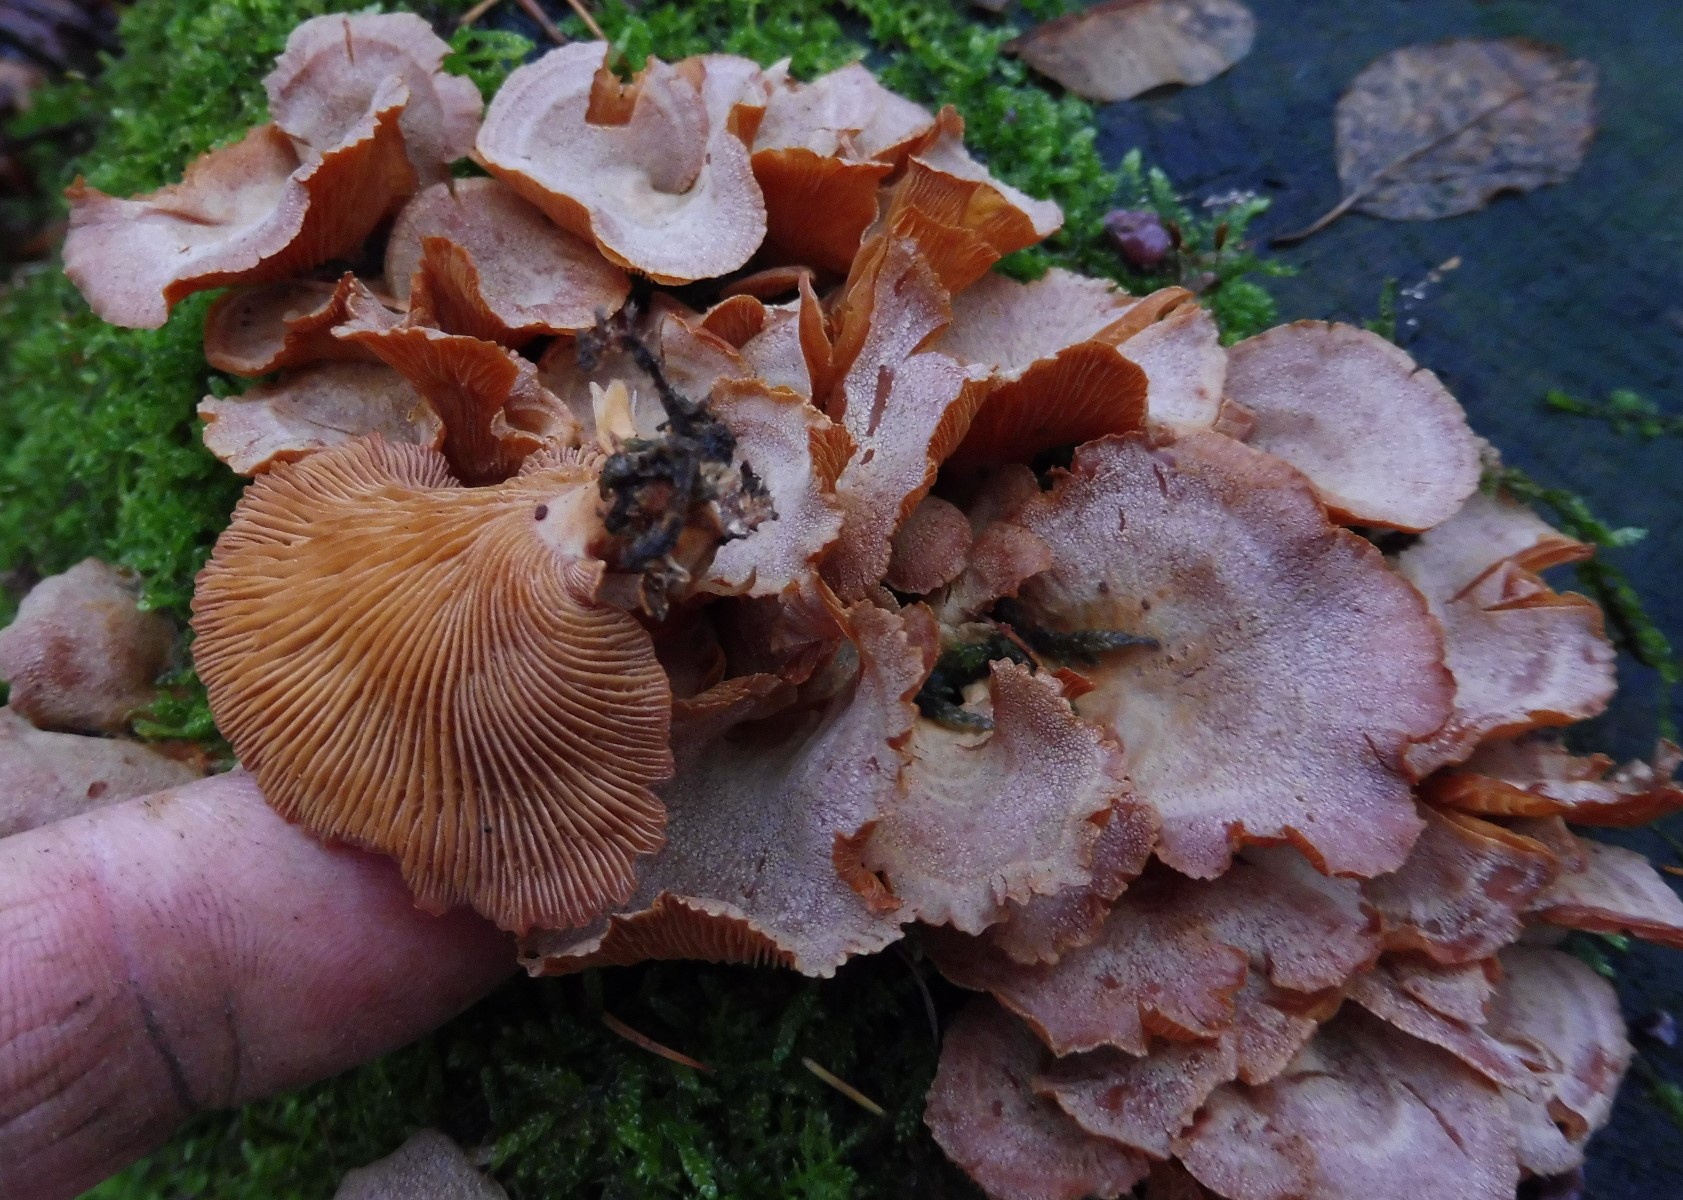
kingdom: Fungi
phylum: Basidiomycota
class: Agaricomycetes
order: Agaricales
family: Mycenaceae
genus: Panellus
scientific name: Panellus stipticus
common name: kliddet epaulethat
